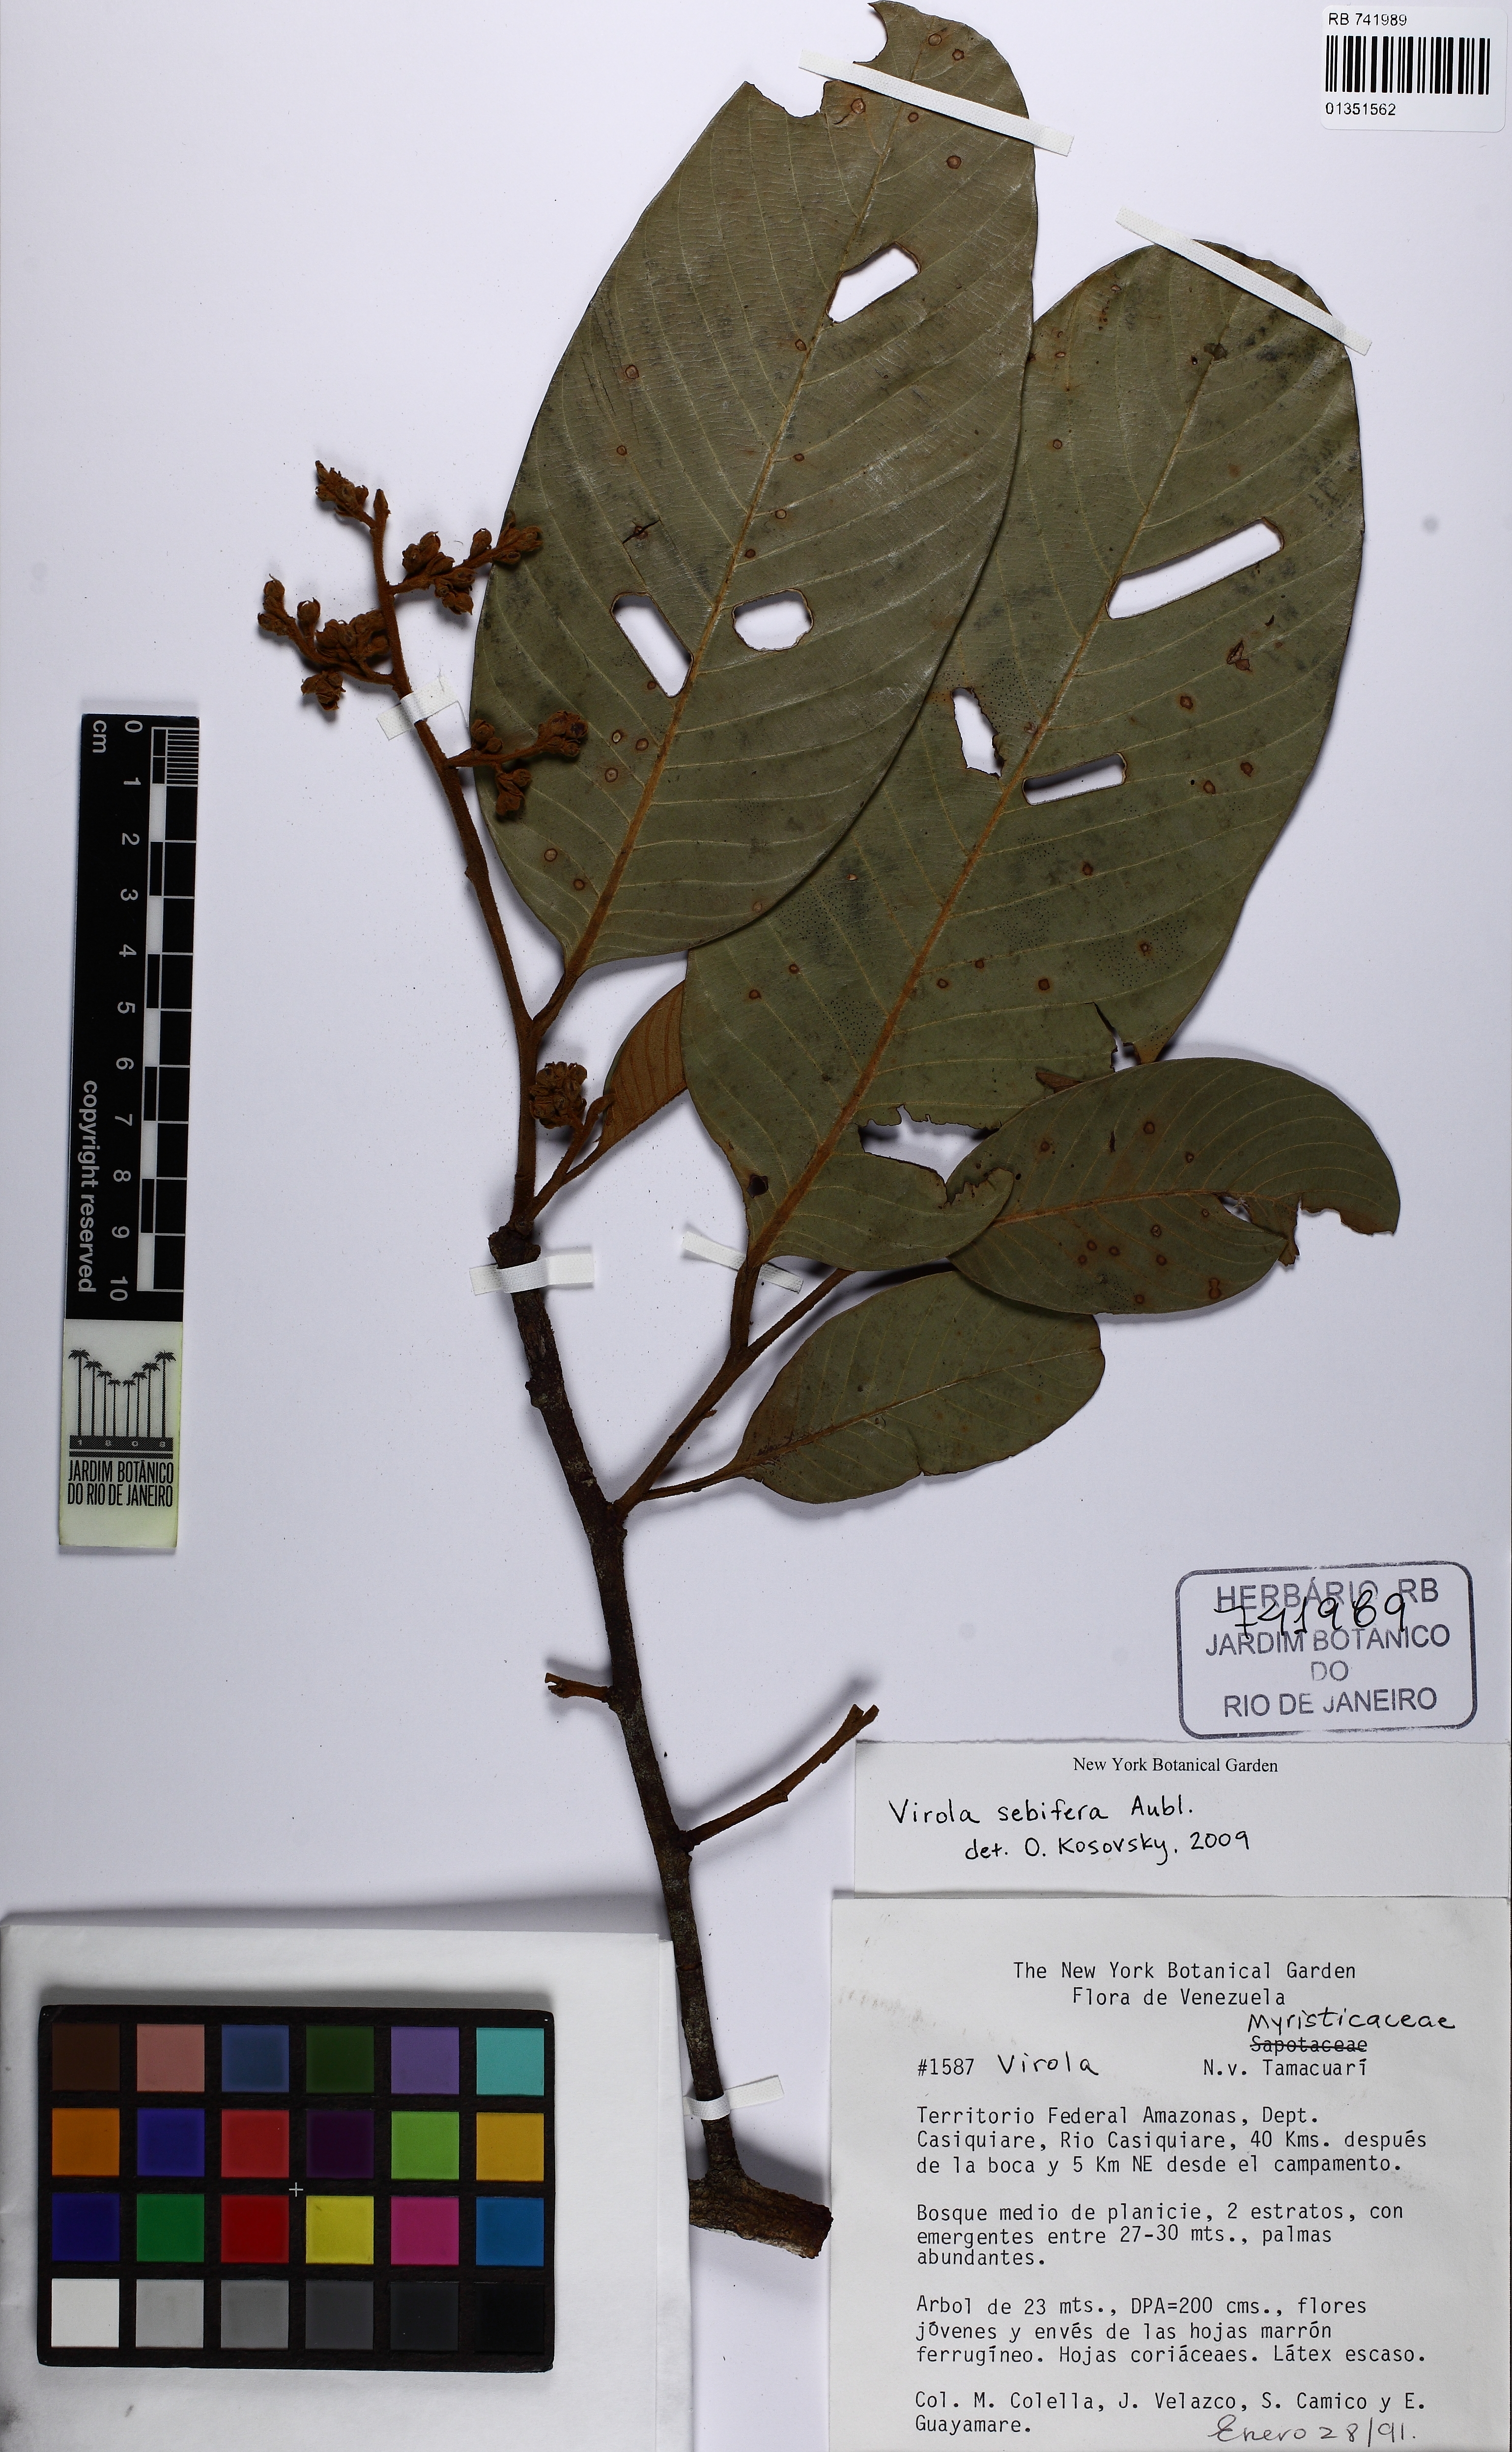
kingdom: Plantae
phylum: Tracheophyta
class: Magnoliopsida
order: Magnoliales
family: Myristicaceae
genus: Virola
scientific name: Virola sebifera
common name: Red ucuuba
